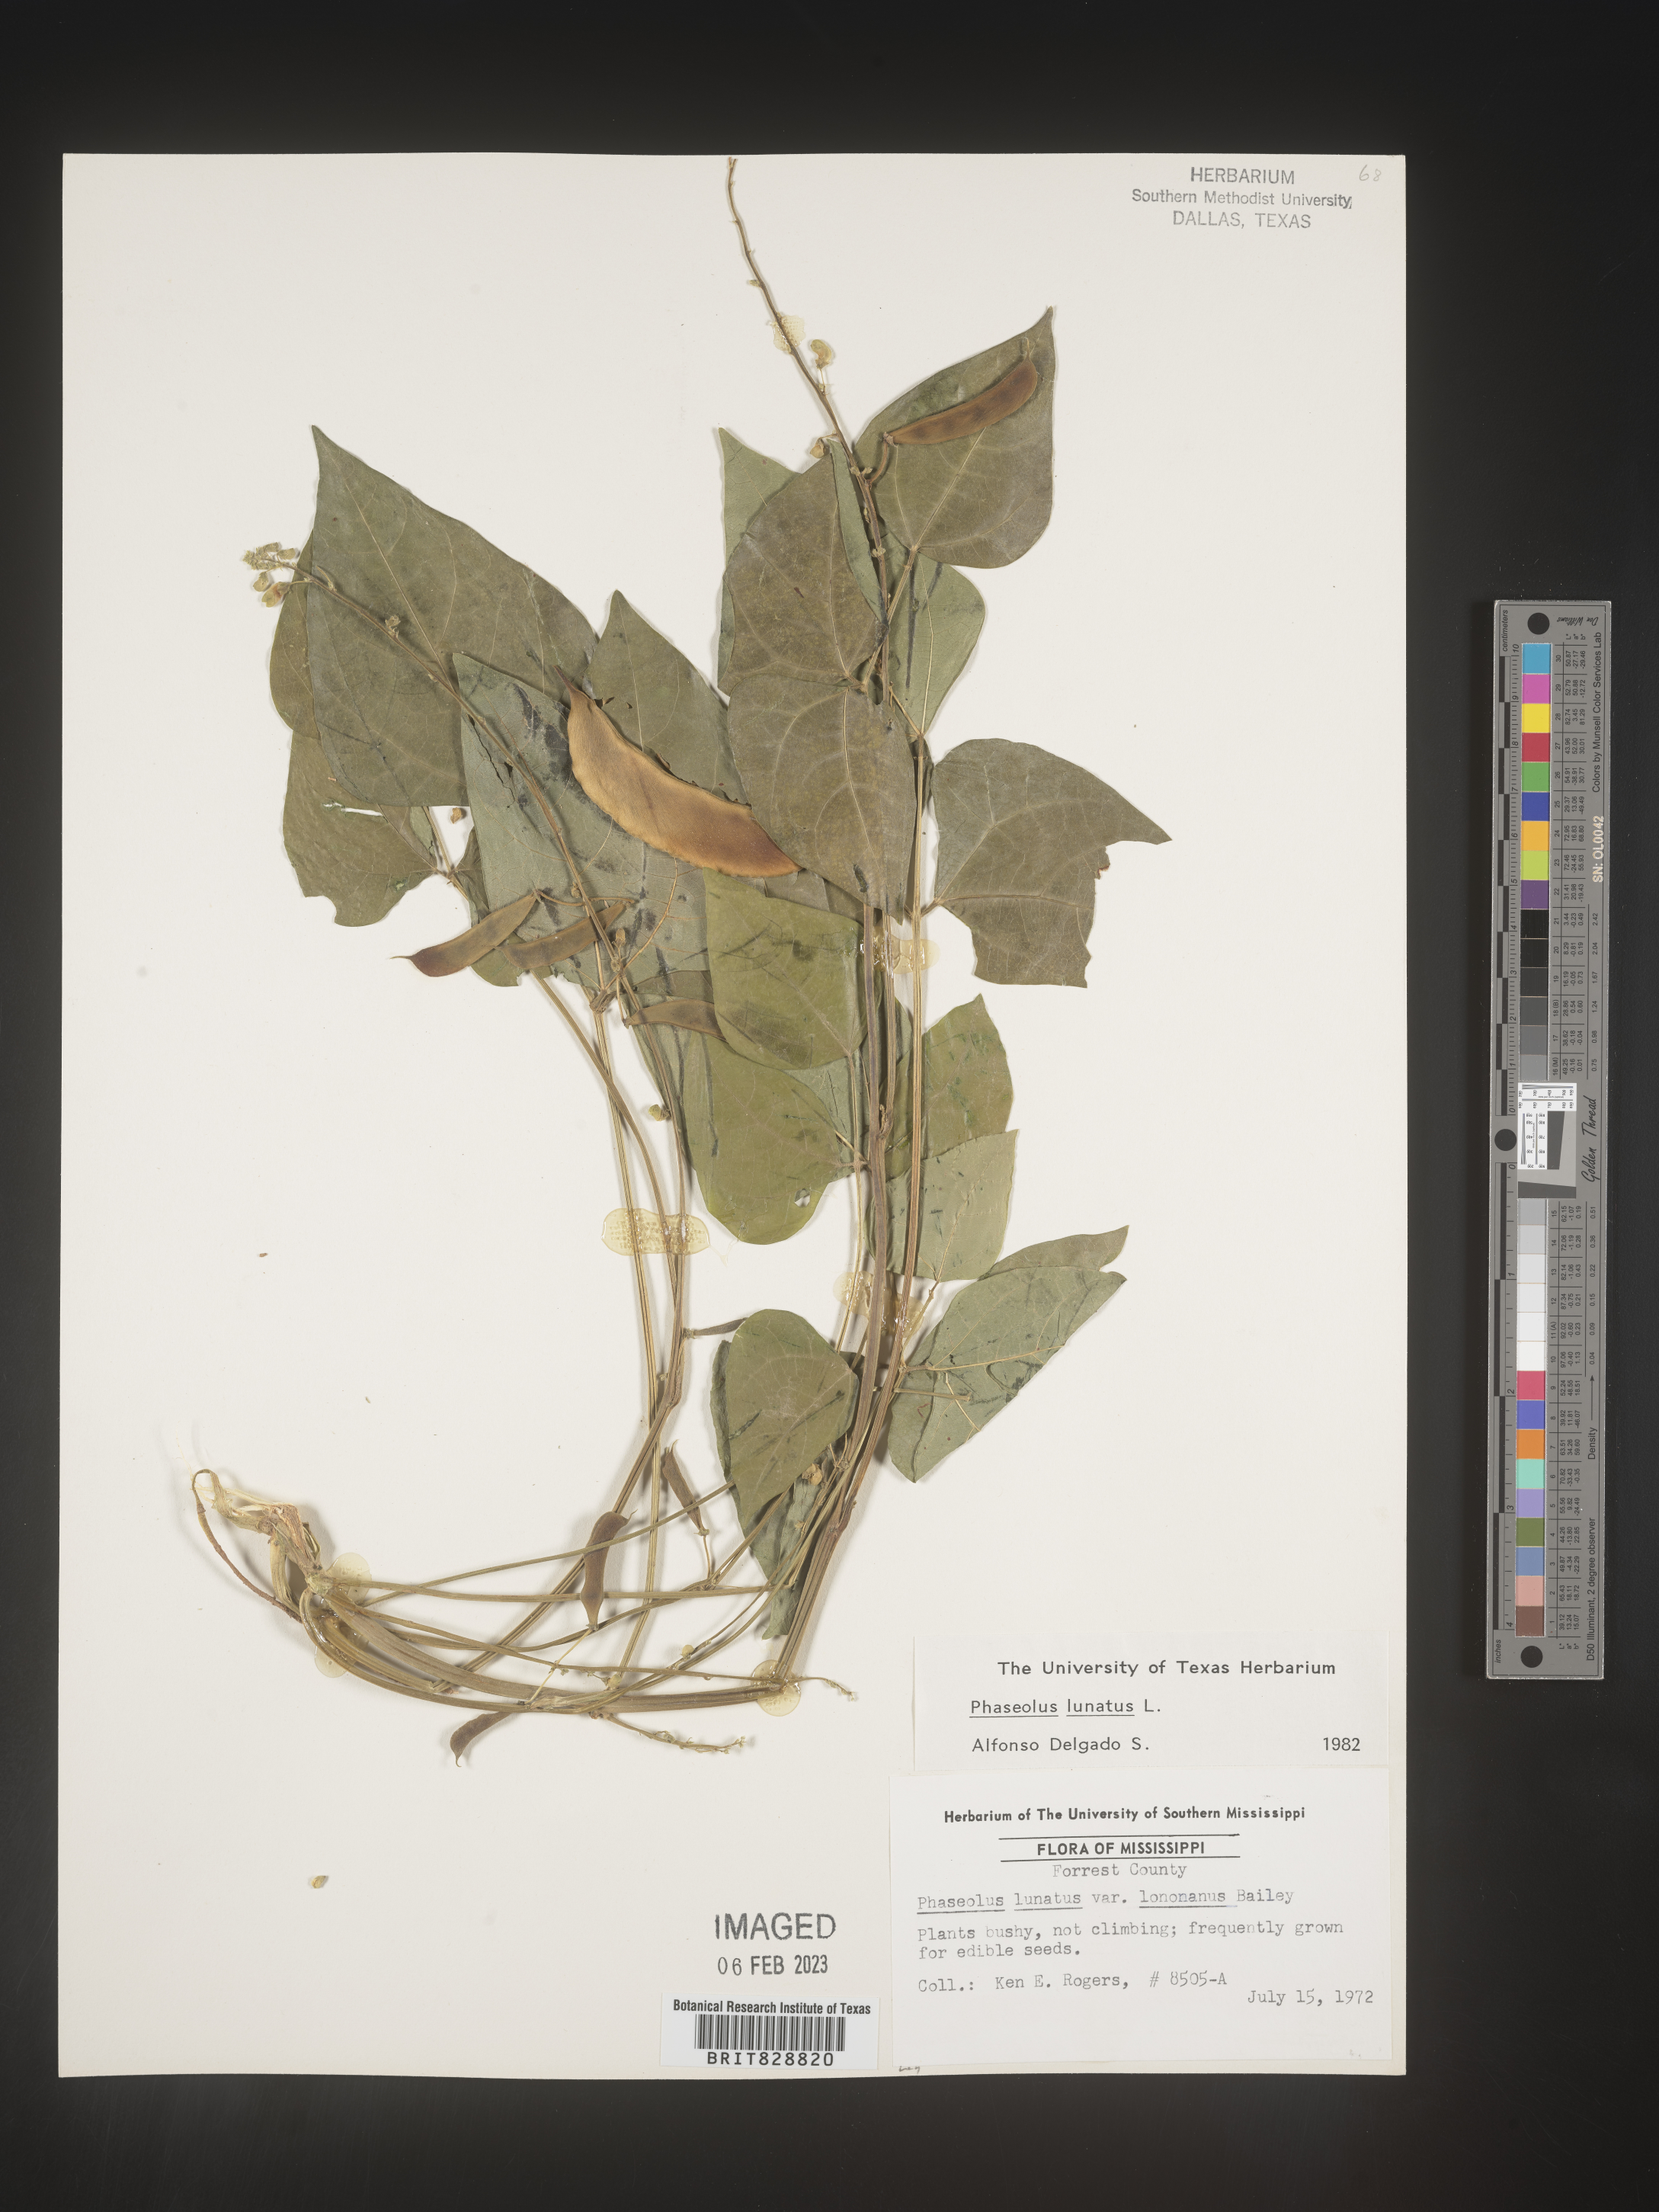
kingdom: Plantae
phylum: Tracheophyta
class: Magnoliopsida
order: Fabales
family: Fabaceae
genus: Phaseolus
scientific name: Phaseolus
